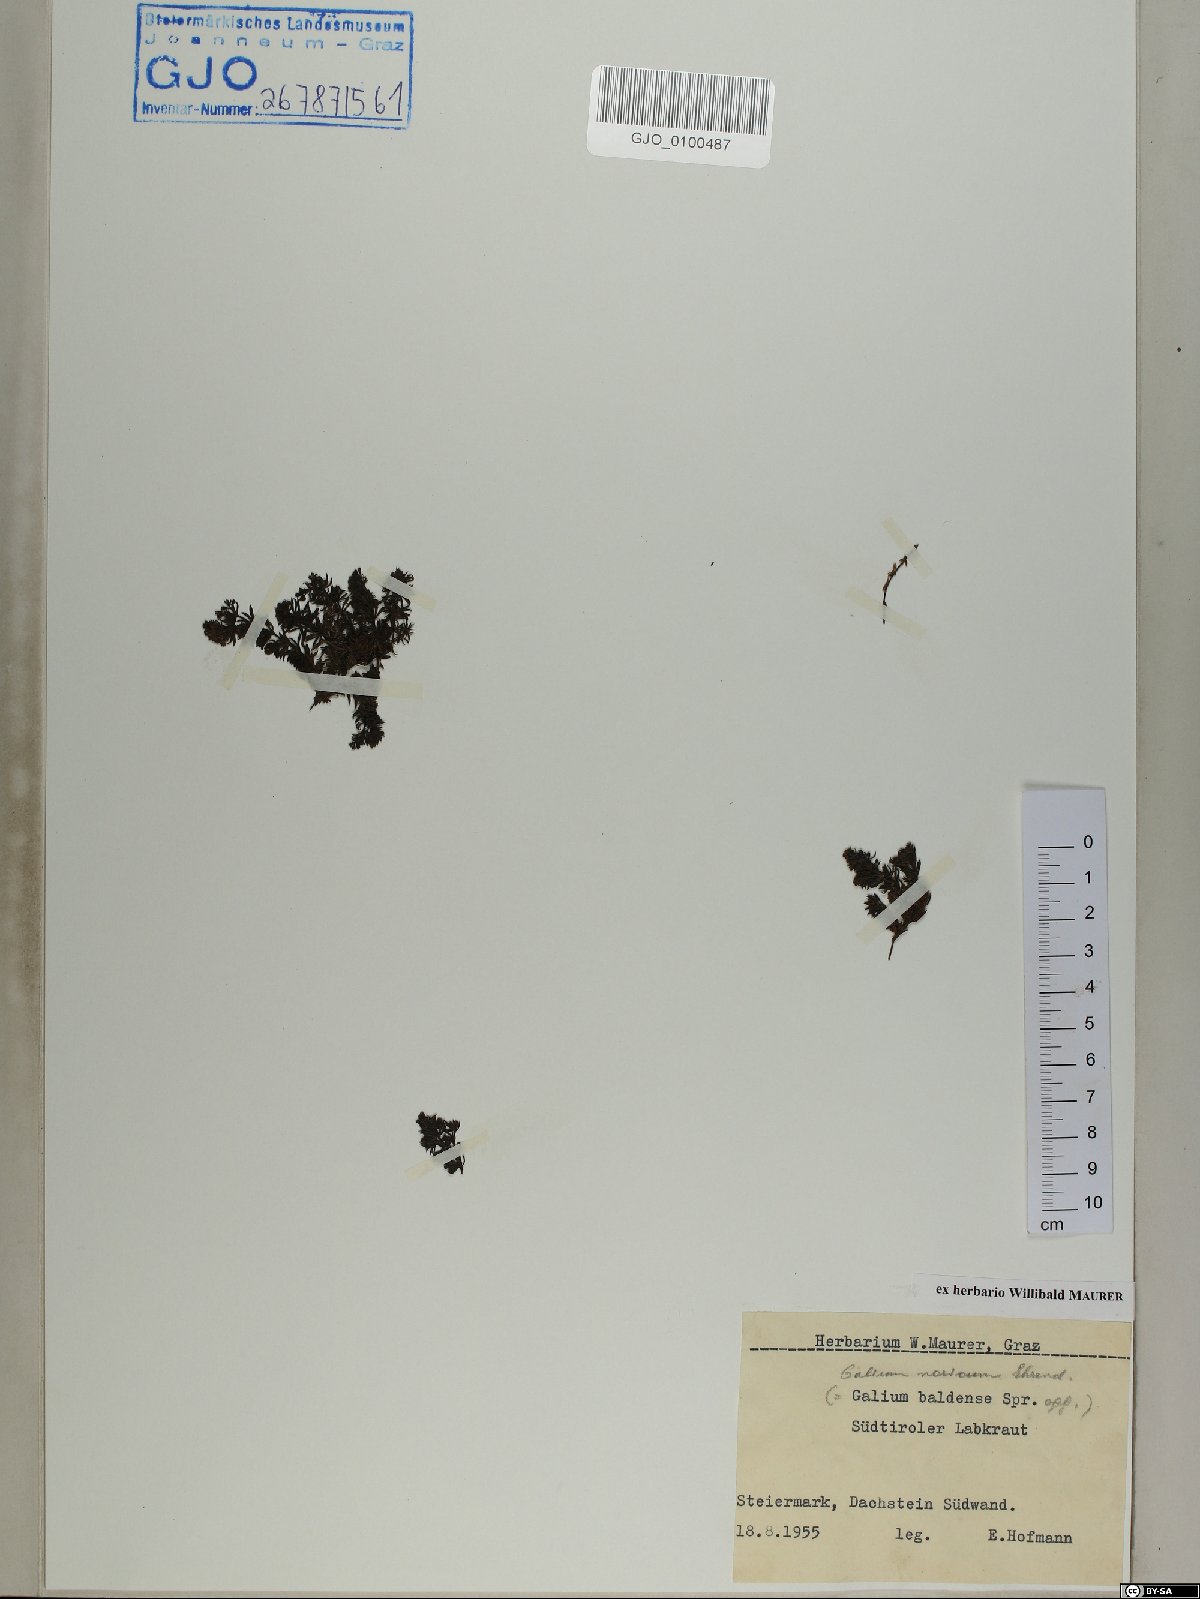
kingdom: Plantae
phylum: Tracheophyta
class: Magnoliopsida
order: Gentianales
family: Rubiaceae
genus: Galium
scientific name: Galium noricum
